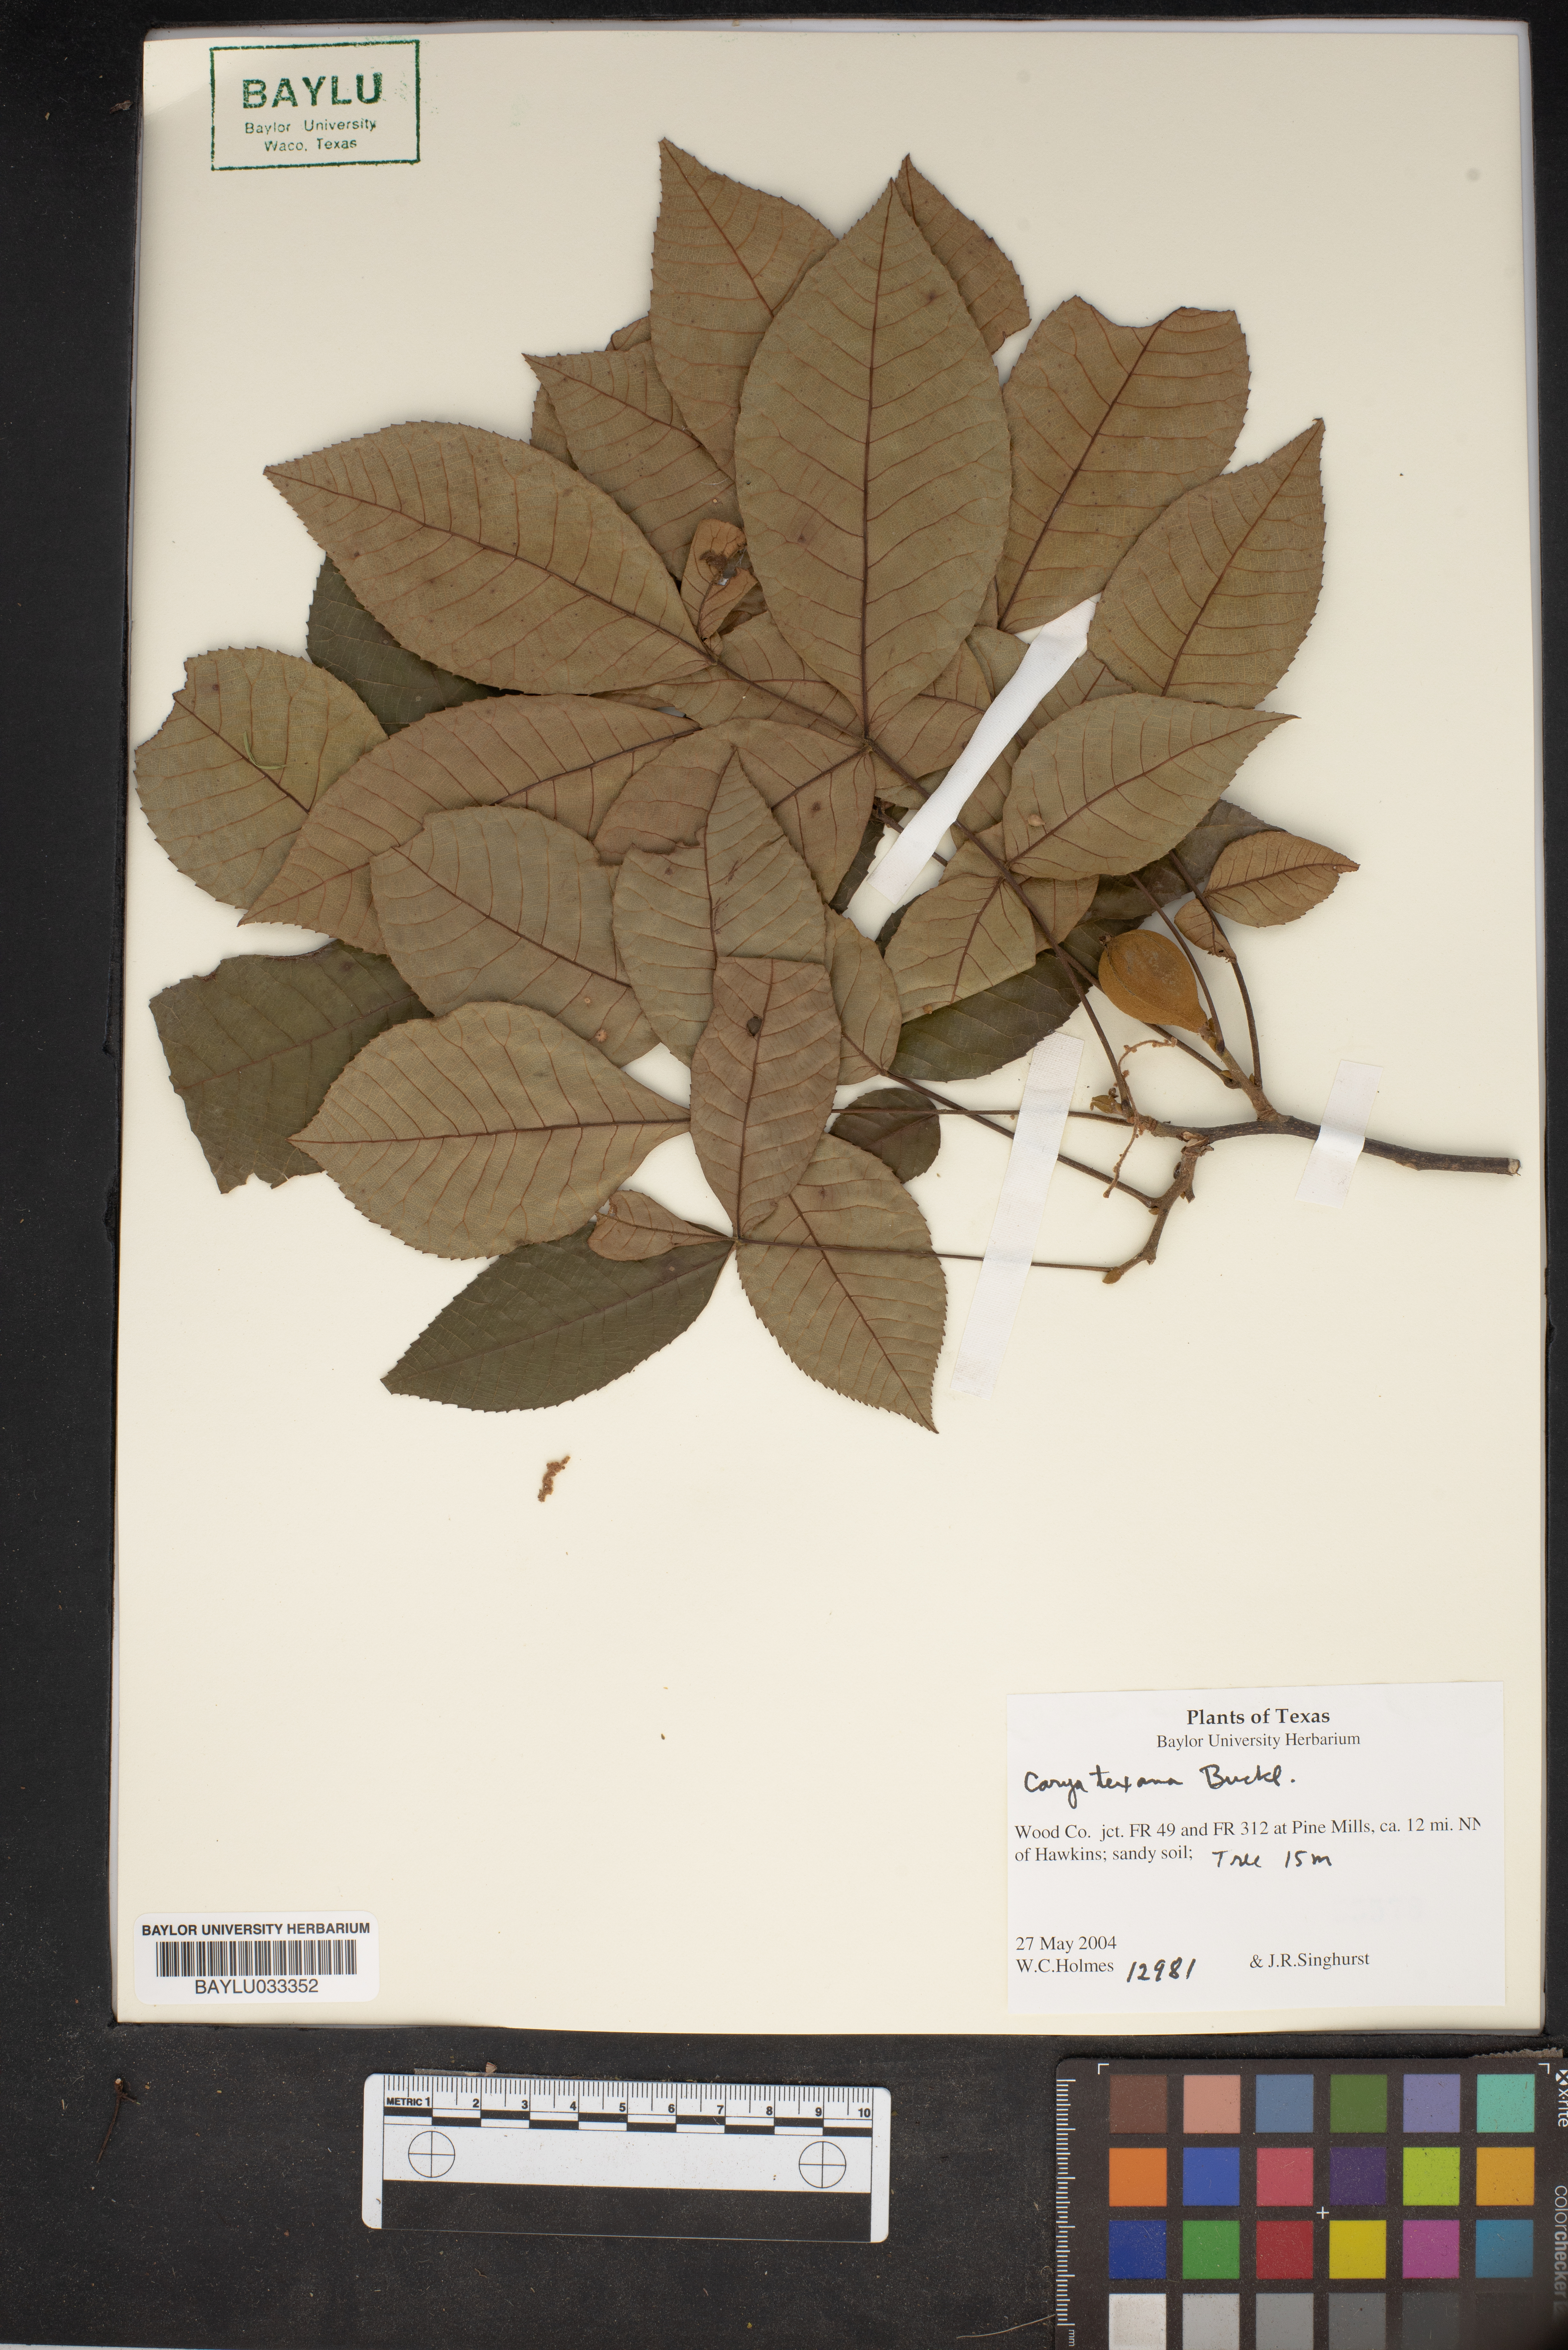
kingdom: Plantae
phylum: Tracheophyta
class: Magnoliopsida
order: Fagales
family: Juglandaceae
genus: Carya
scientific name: Carya texana
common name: Black hickory
